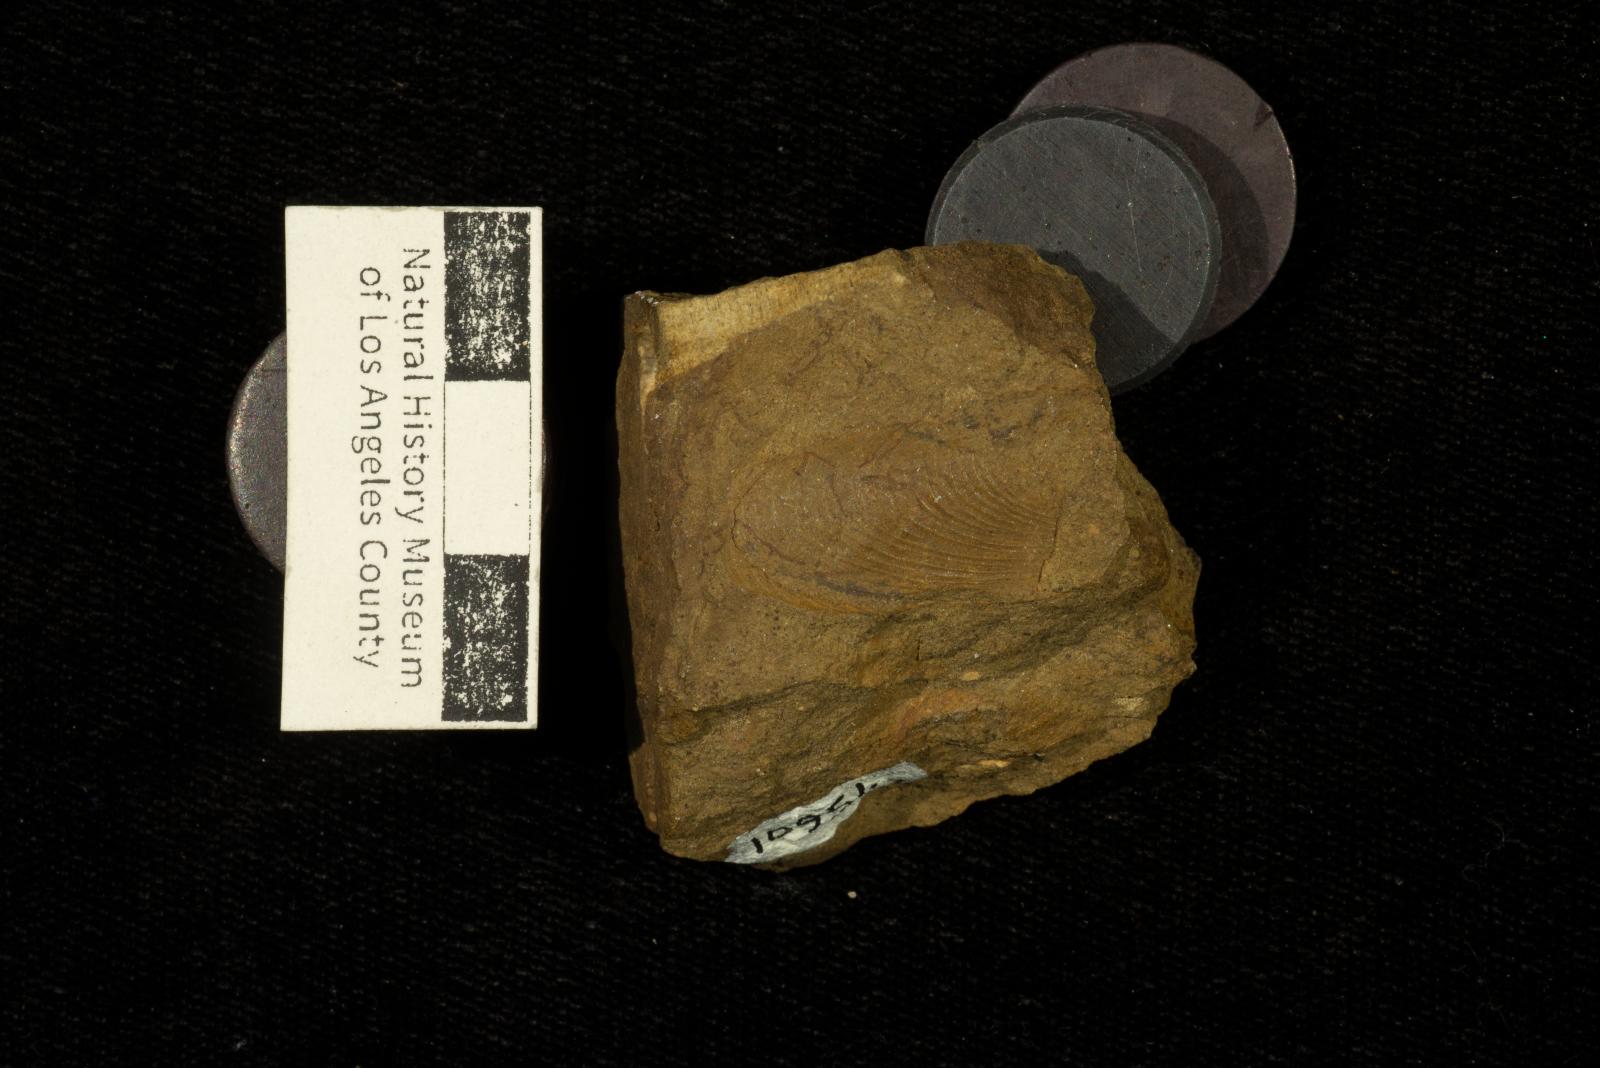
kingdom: Animalia
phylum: Mollusca
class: Bivalvia
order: Mytilida
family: Mytilidae
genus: Inoperna
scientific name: Inoperna bellarugosa
